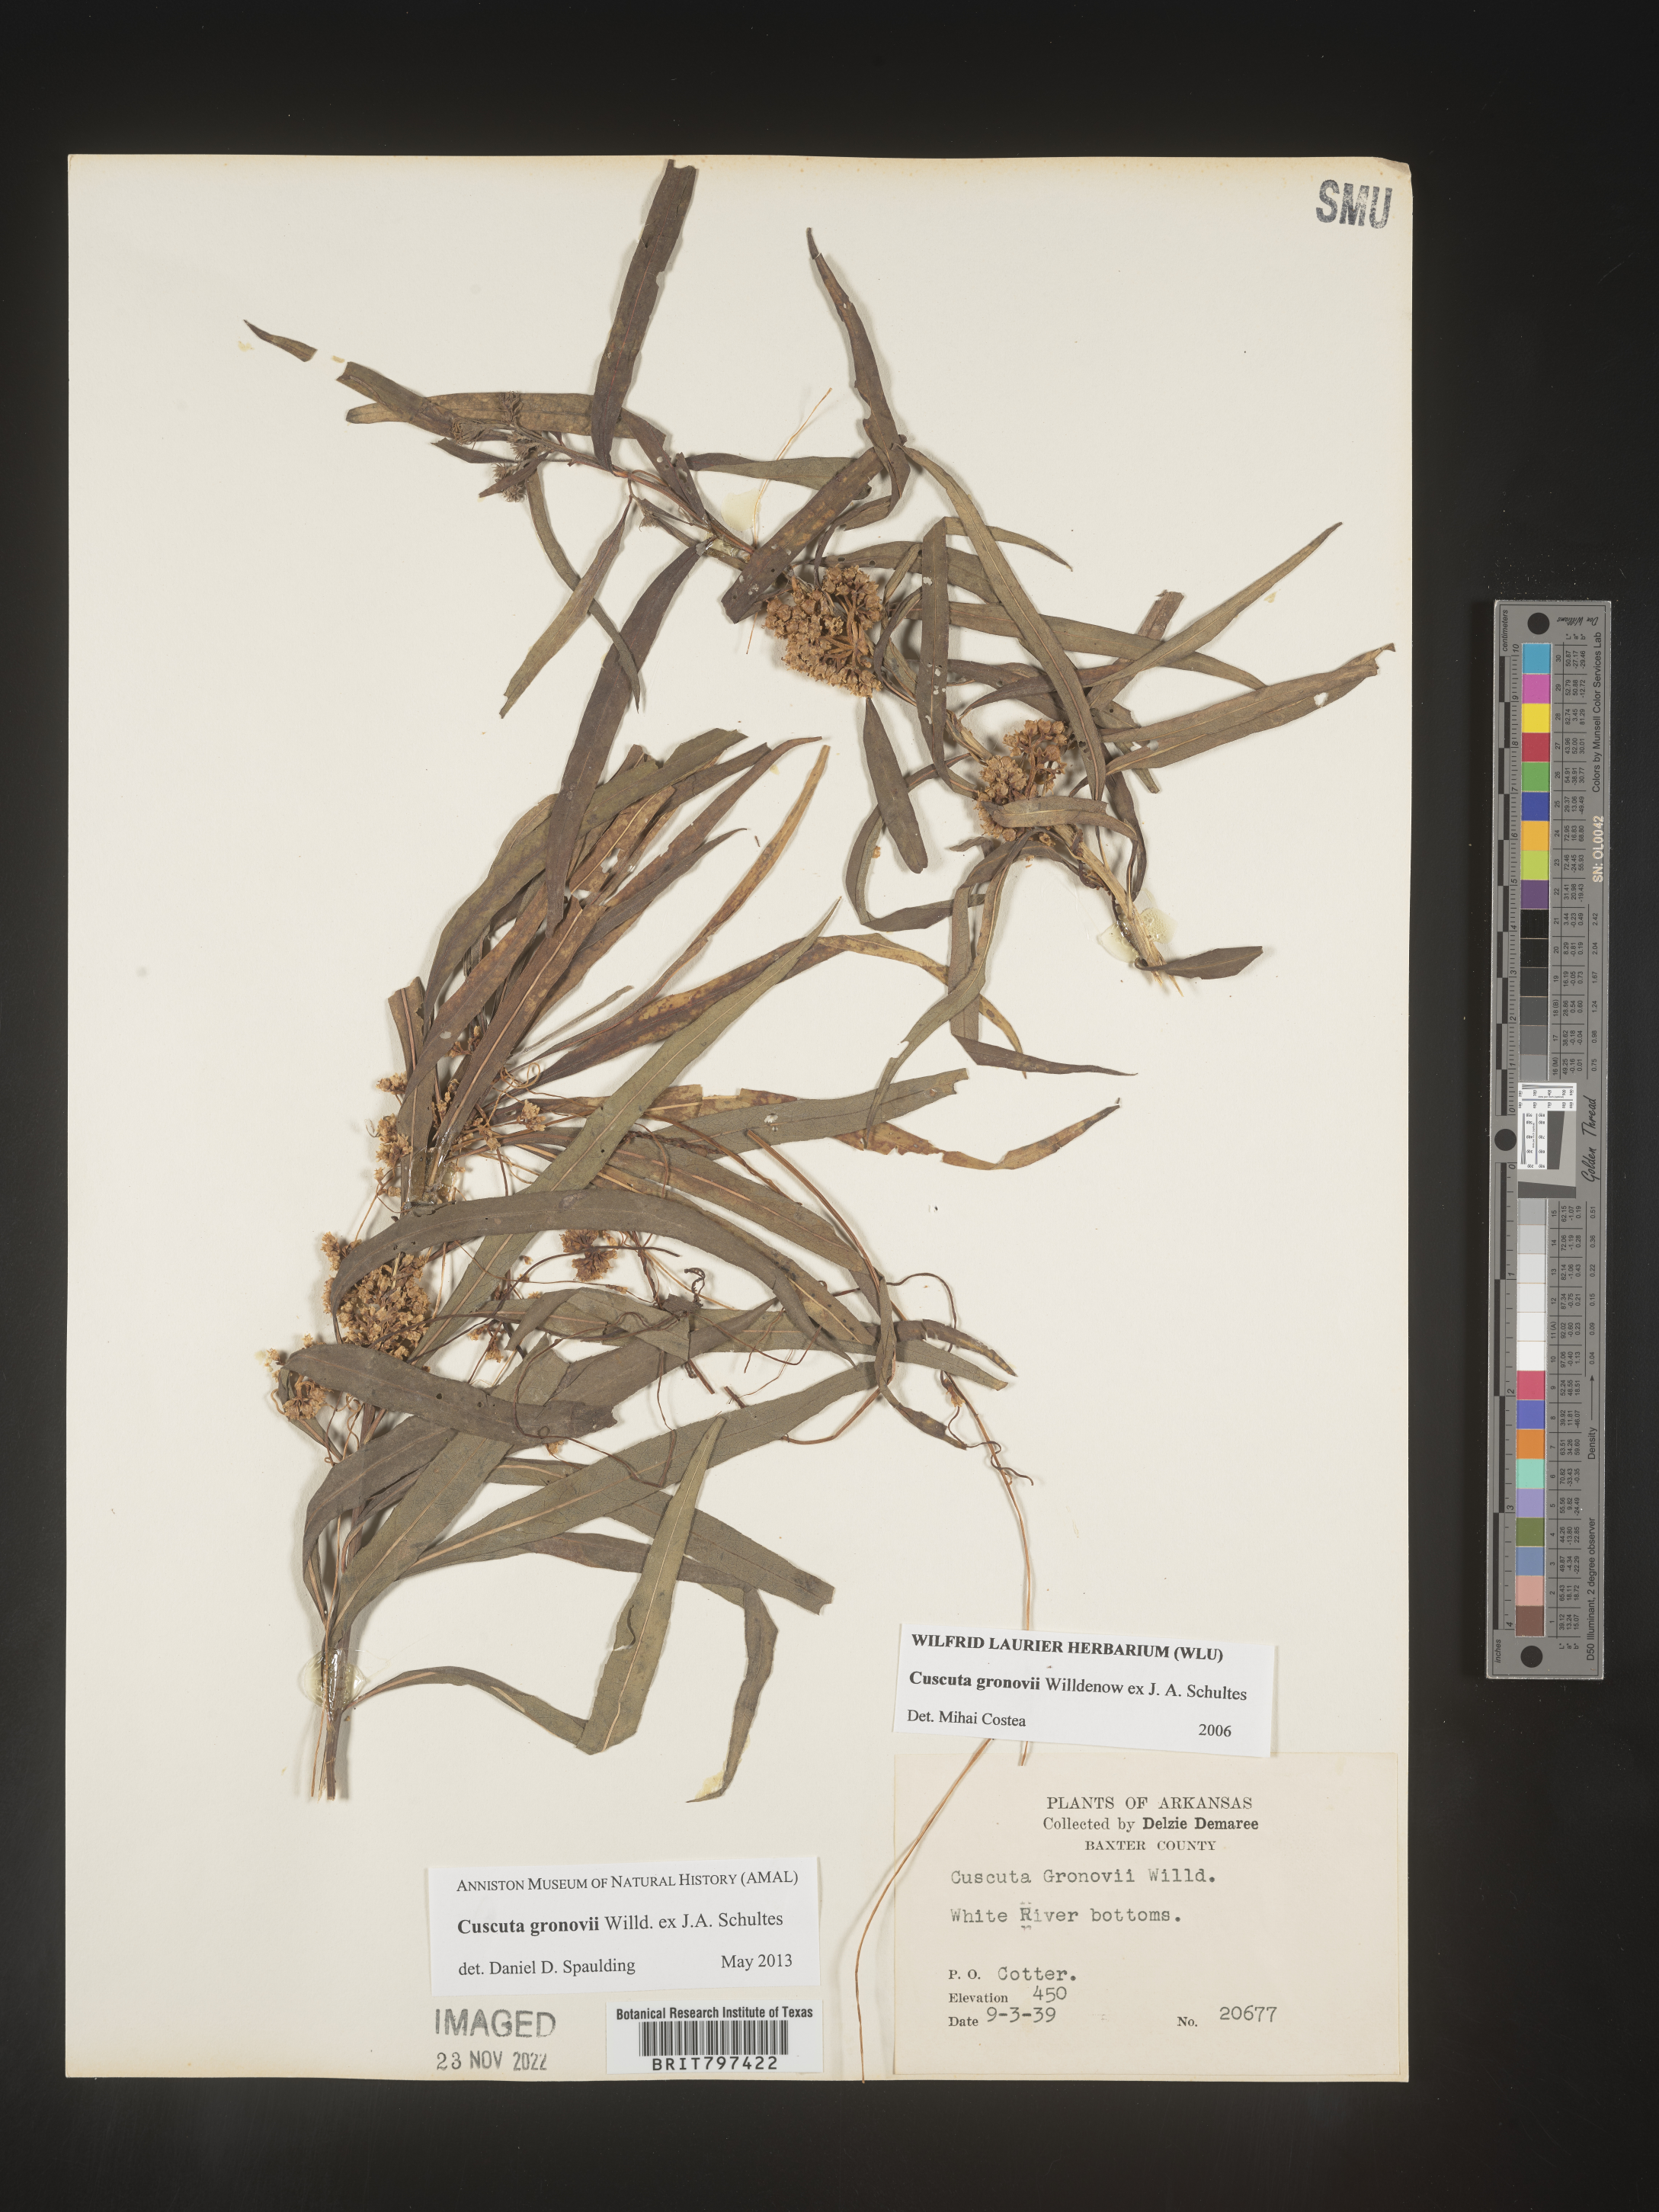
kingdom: Plantae
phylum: Tracheophyta
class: Magnoliopsida
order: Solanales
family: Convolvulaceae
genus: Cuscuta
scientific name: Cuscuta gronovii
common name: Common dodder
